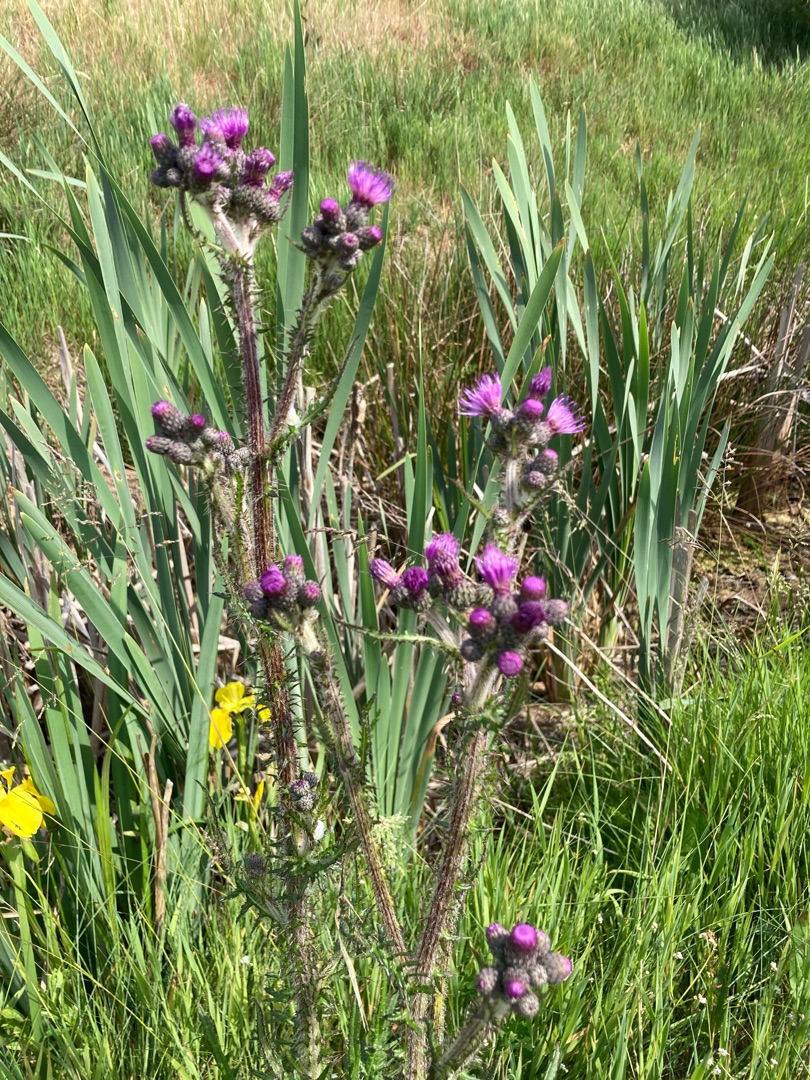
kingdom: Plantae
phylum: Tracheophyta
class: Magnoliopsida
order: Asterales
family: Asteraceae
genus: Cirsium
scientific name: Cirsium palustre
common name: Kær-tidsel
